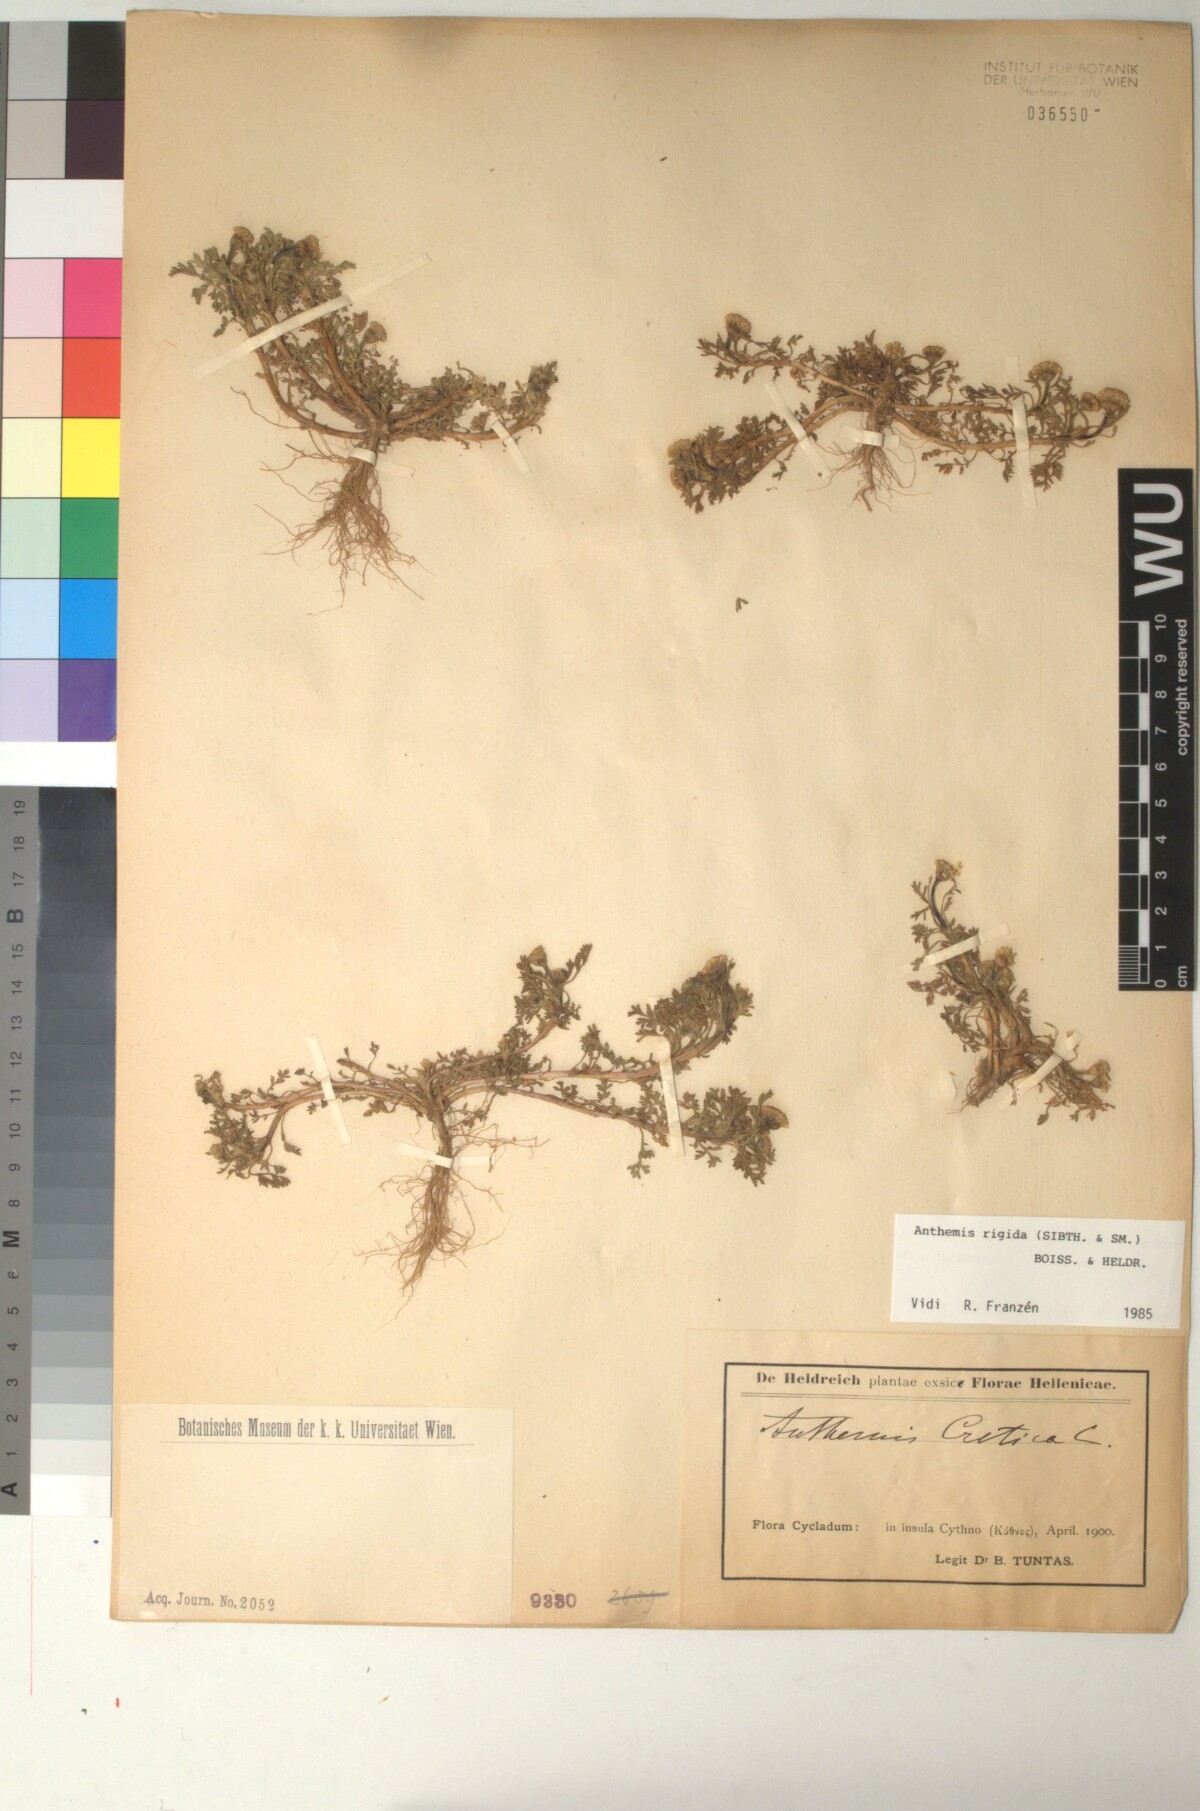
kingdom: Plantae
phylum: Tracheophyta
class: Magnoliopsida
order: Asterales
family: Asteraceae
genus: Anthemis
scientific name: Anthemis rigida
